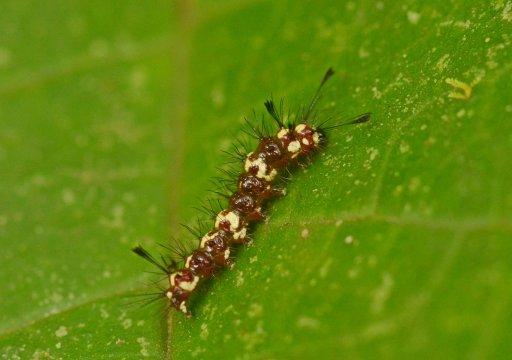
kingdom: Animalia
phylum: Arthropoda
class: Insecta
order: Lepidoptera
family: Nymphalidae
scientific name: Nymphalidae
